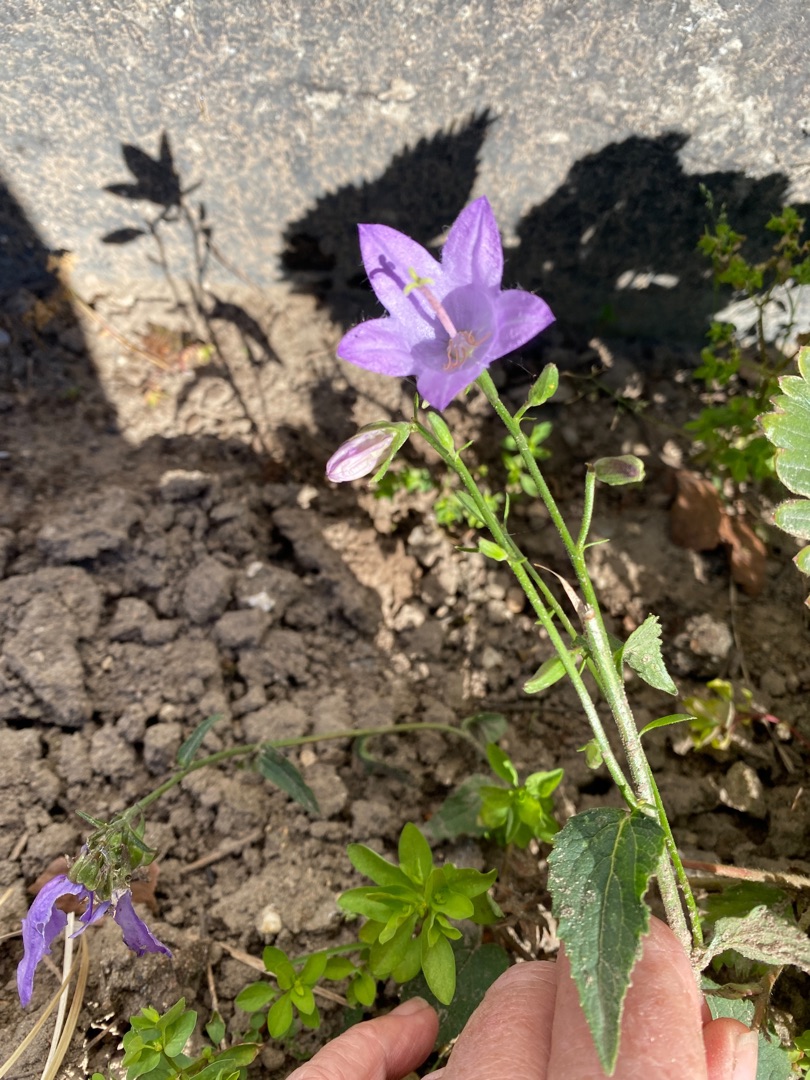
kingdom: Plantae
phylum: Tracheophyta
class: Magnoliopsida
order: Asterales
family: Campanulaceae
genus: Campanula
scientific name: Campanula rapunculoides
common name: Ensidig klokke
